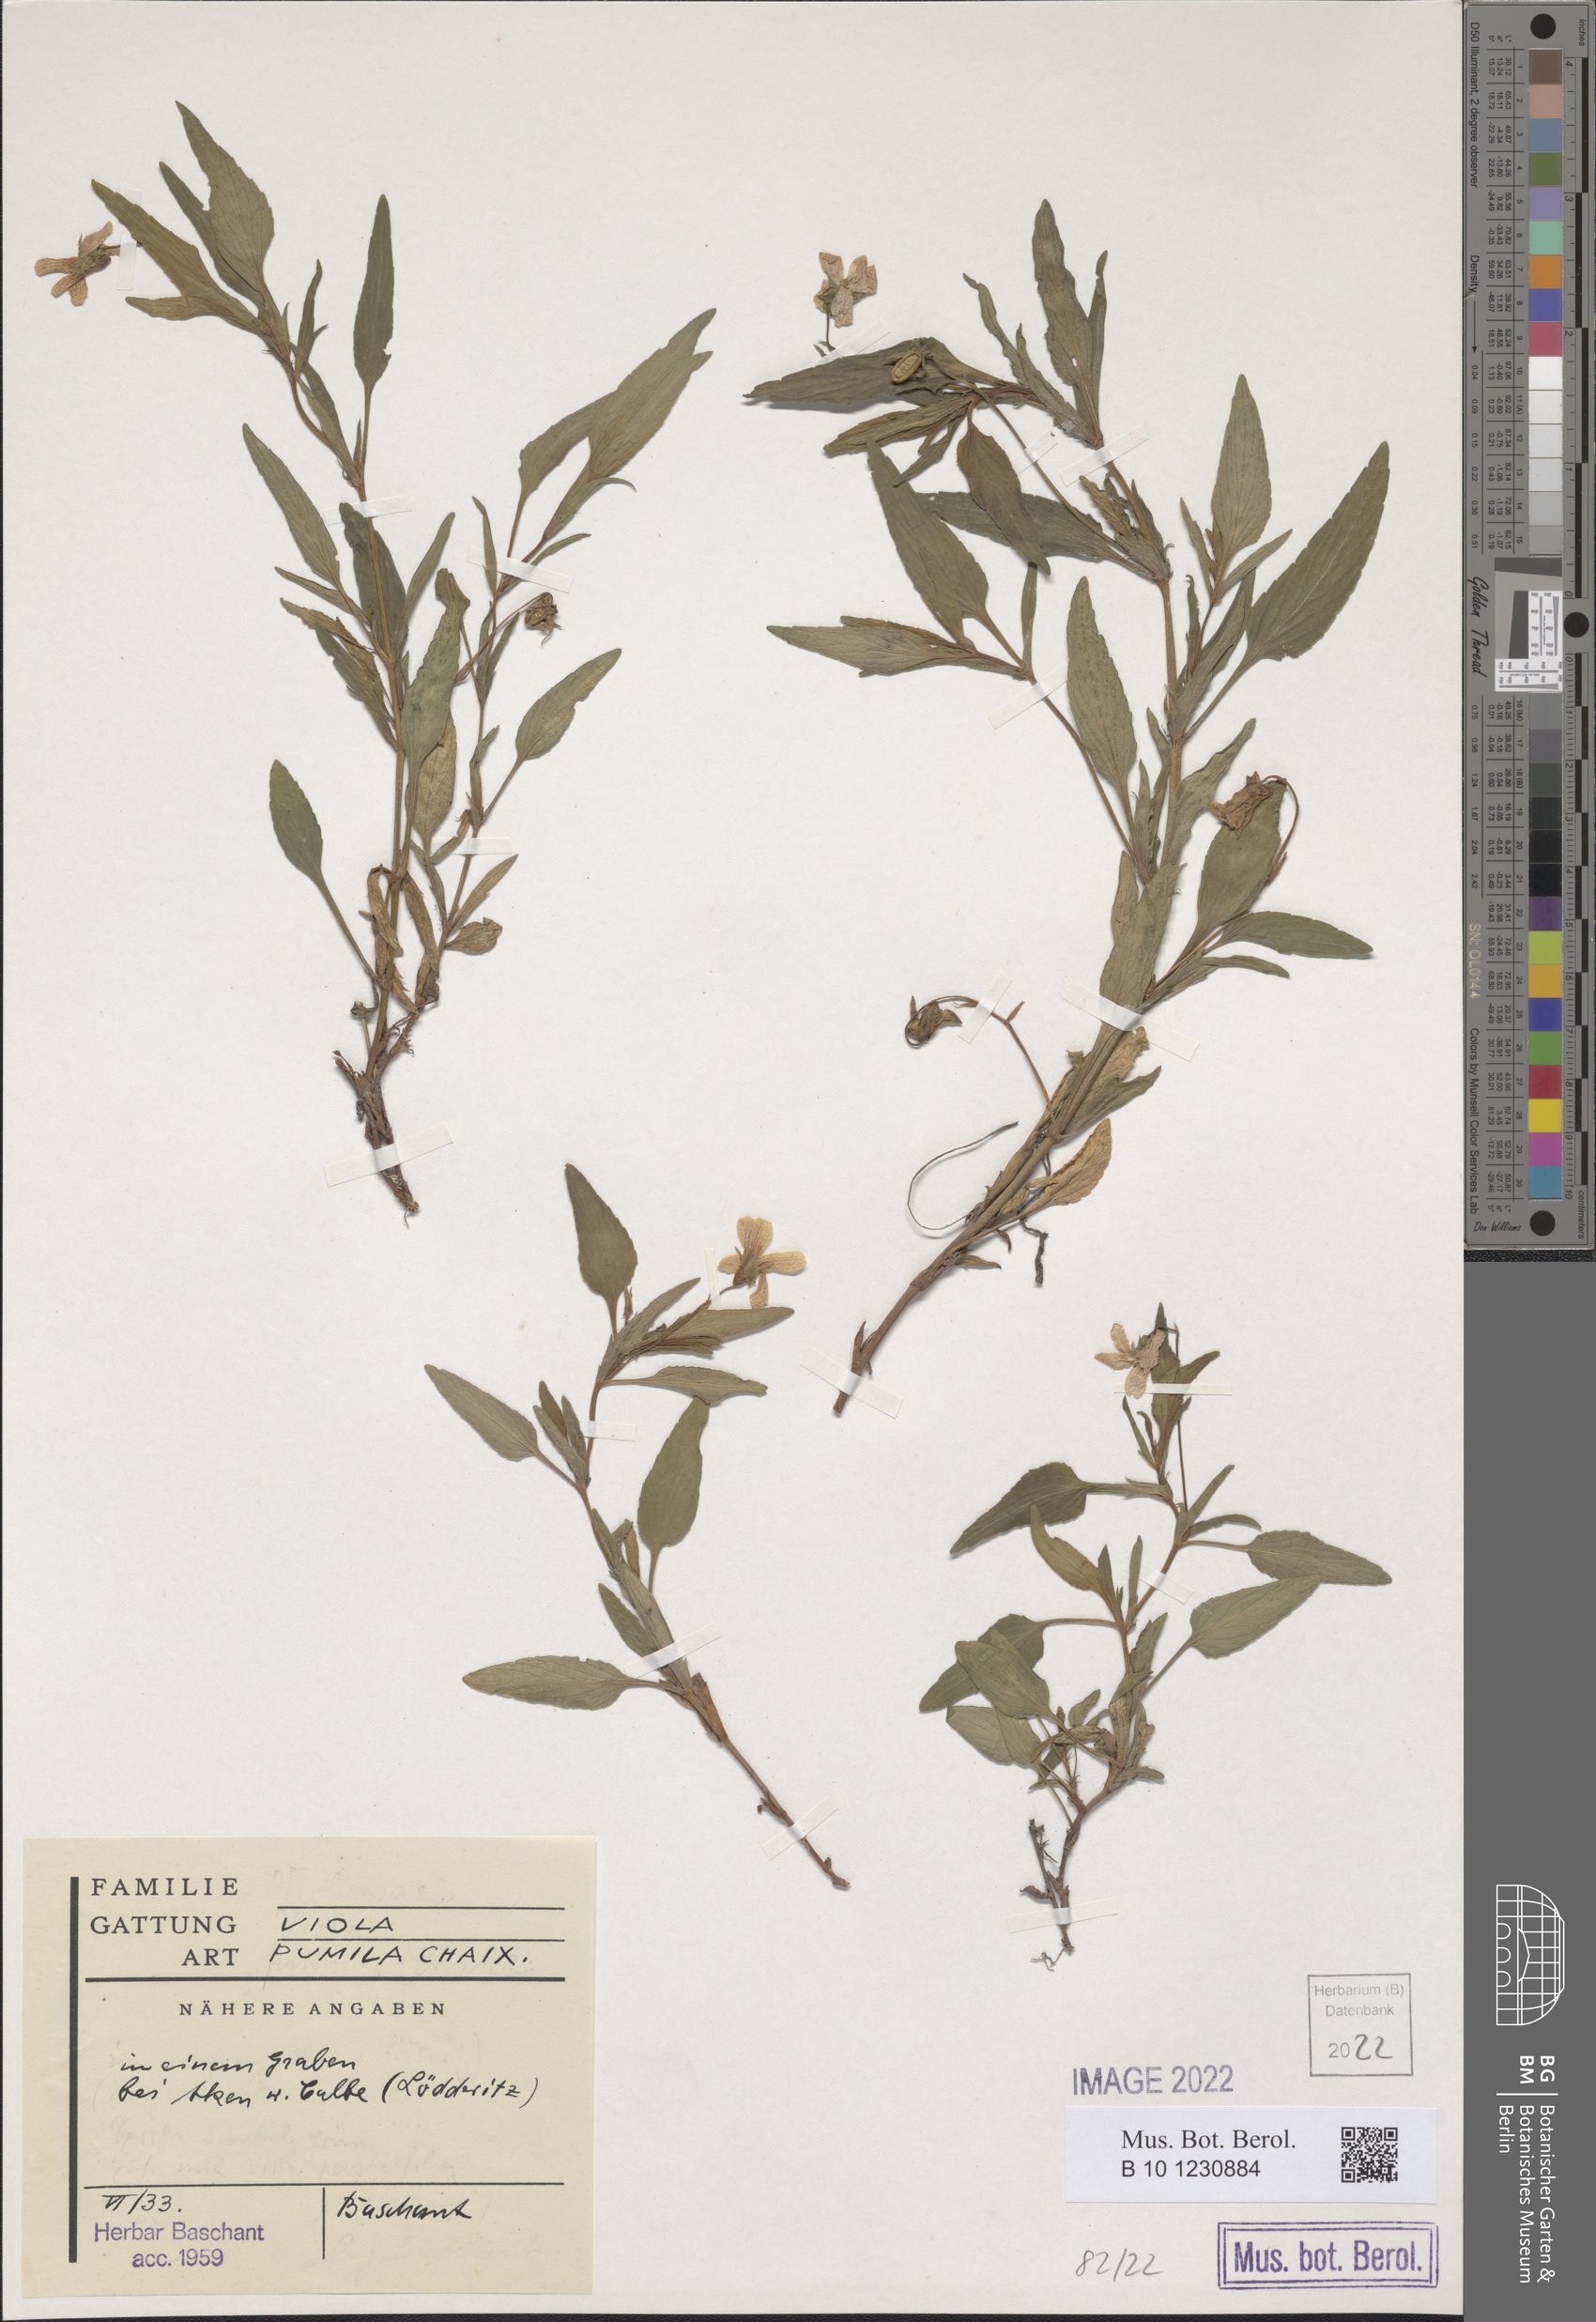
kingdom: Plantae
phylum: Tracheophyta
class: Magnoliopsida
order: Malpighiales
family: Violaceae
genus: Viola
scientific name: Viola pumila
